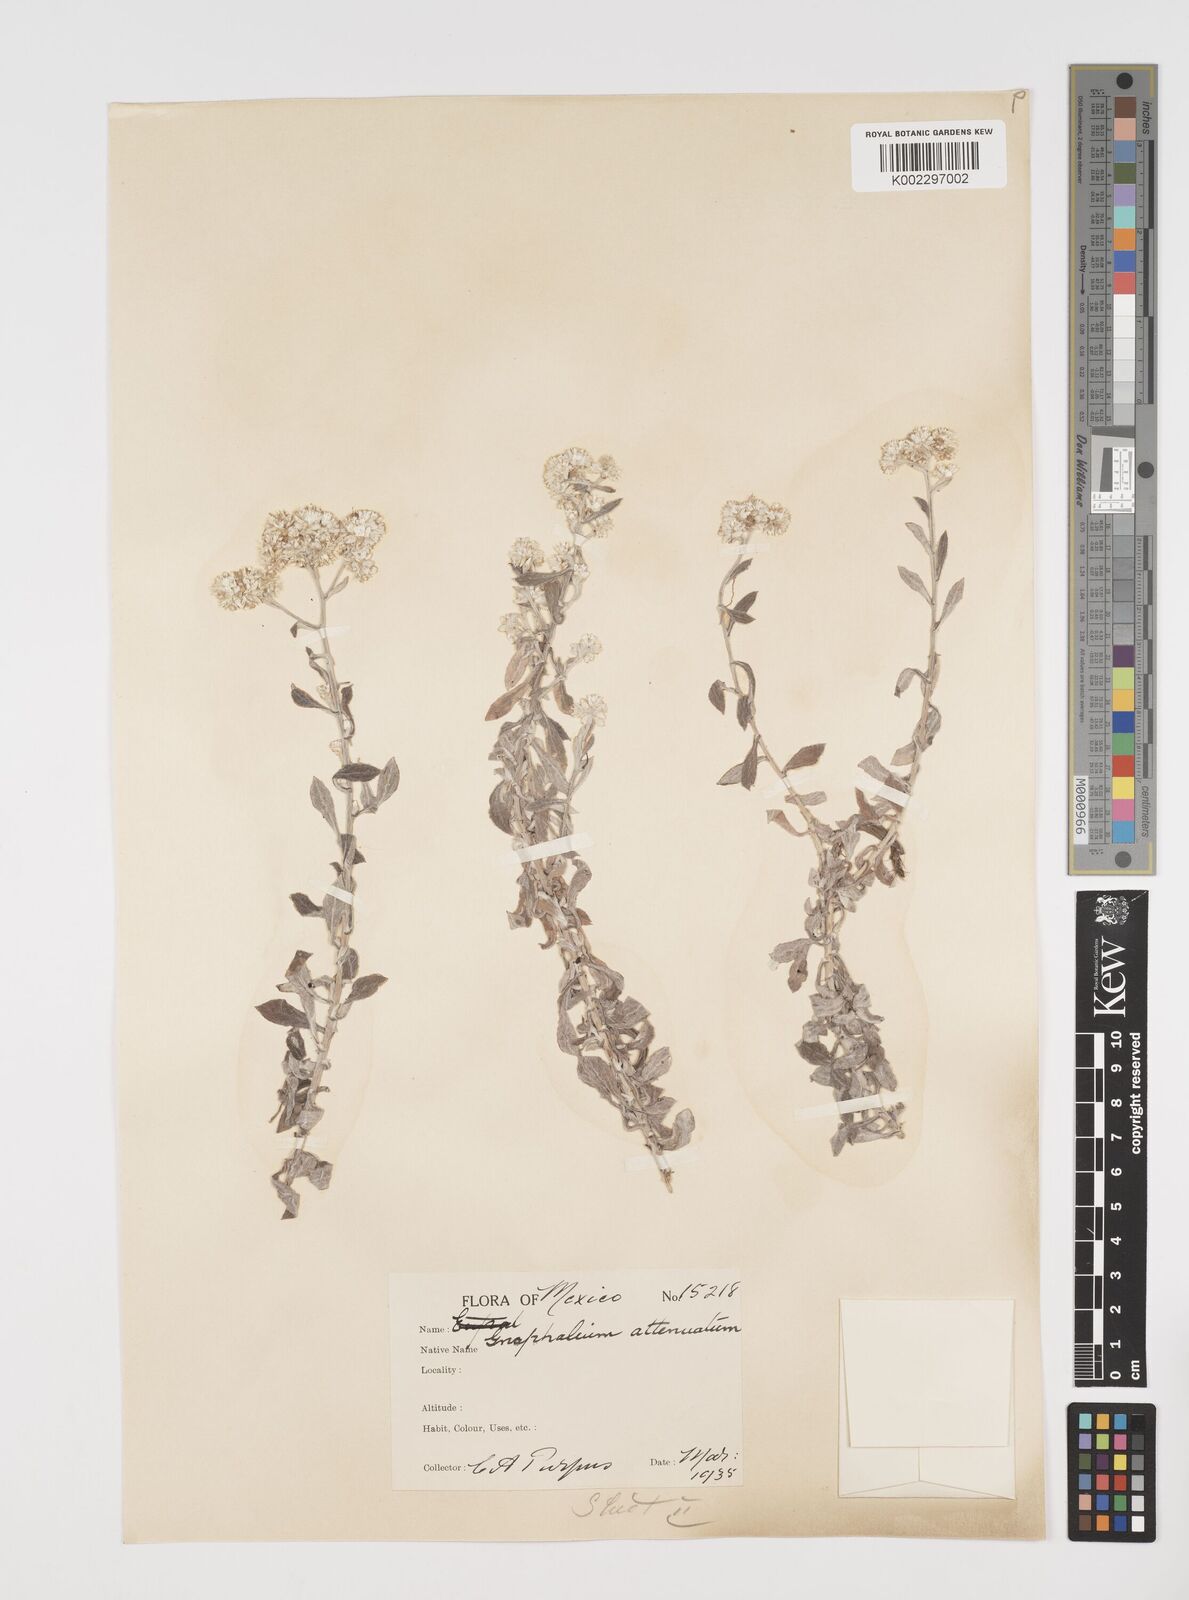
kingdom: Plantae
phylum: Tracheophyta
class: Magnoliopsida
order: Asterales
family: Asteraceae
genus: Pseudognaphalium
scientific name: Pseudognaphalium attenuatum
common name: Tapered cudweed
